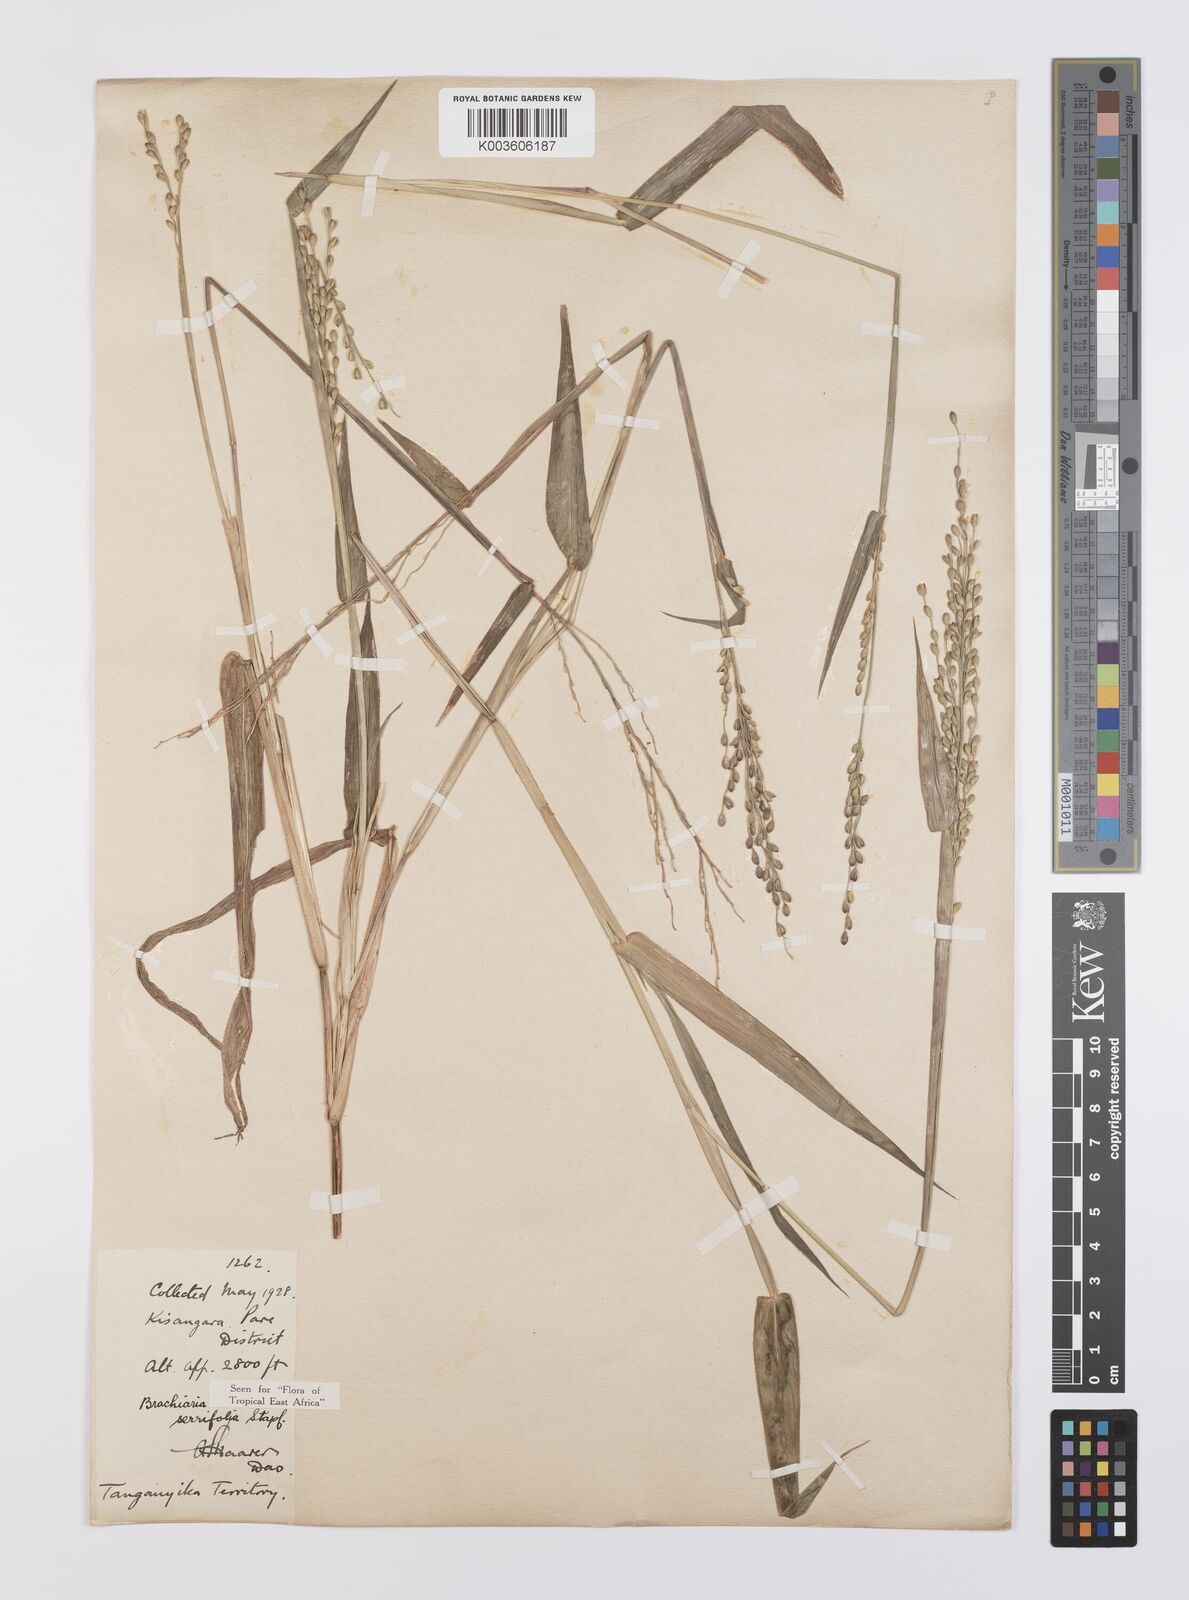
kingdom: Plantae
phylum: Tracheophyta
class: Liliopsida
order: Poales
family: Poaceae
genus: Urochloa
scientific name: Urochloa serrifolia
